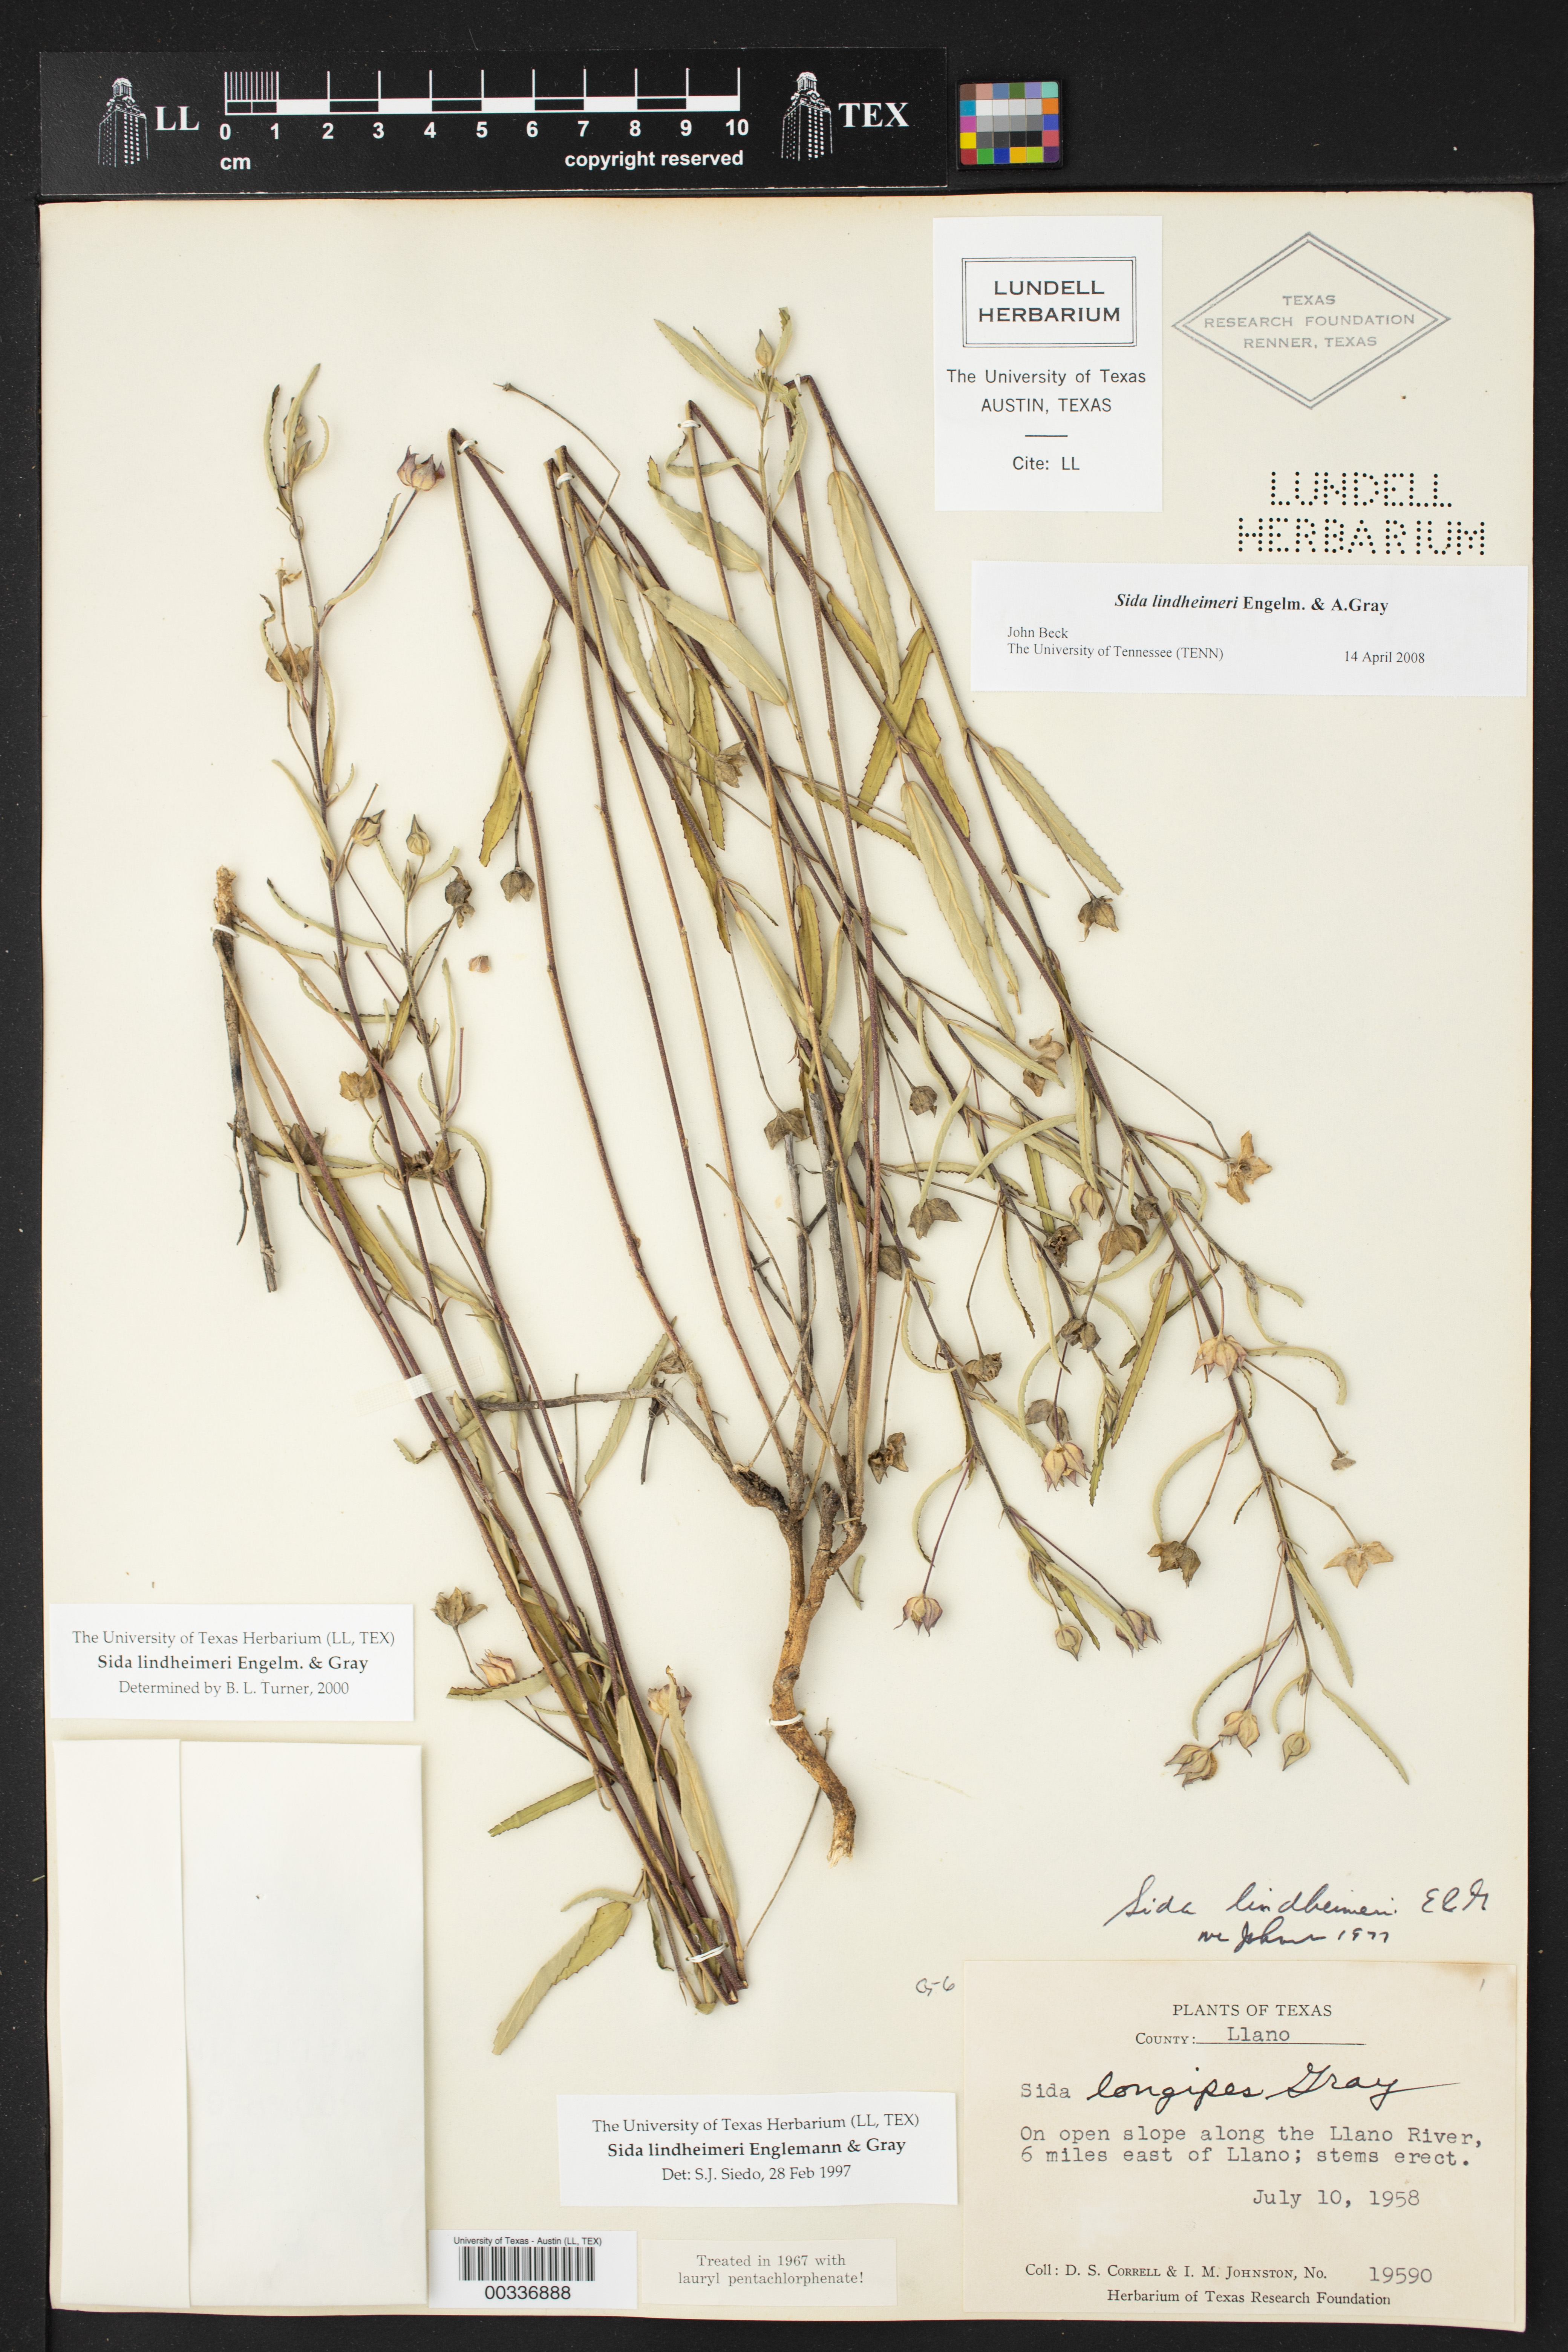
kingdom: Plantae
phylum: Tracheophyta
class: Magnoliopsida
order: Malvales
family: Malvaceae
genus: Sida
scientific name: Sida lindheimeri
